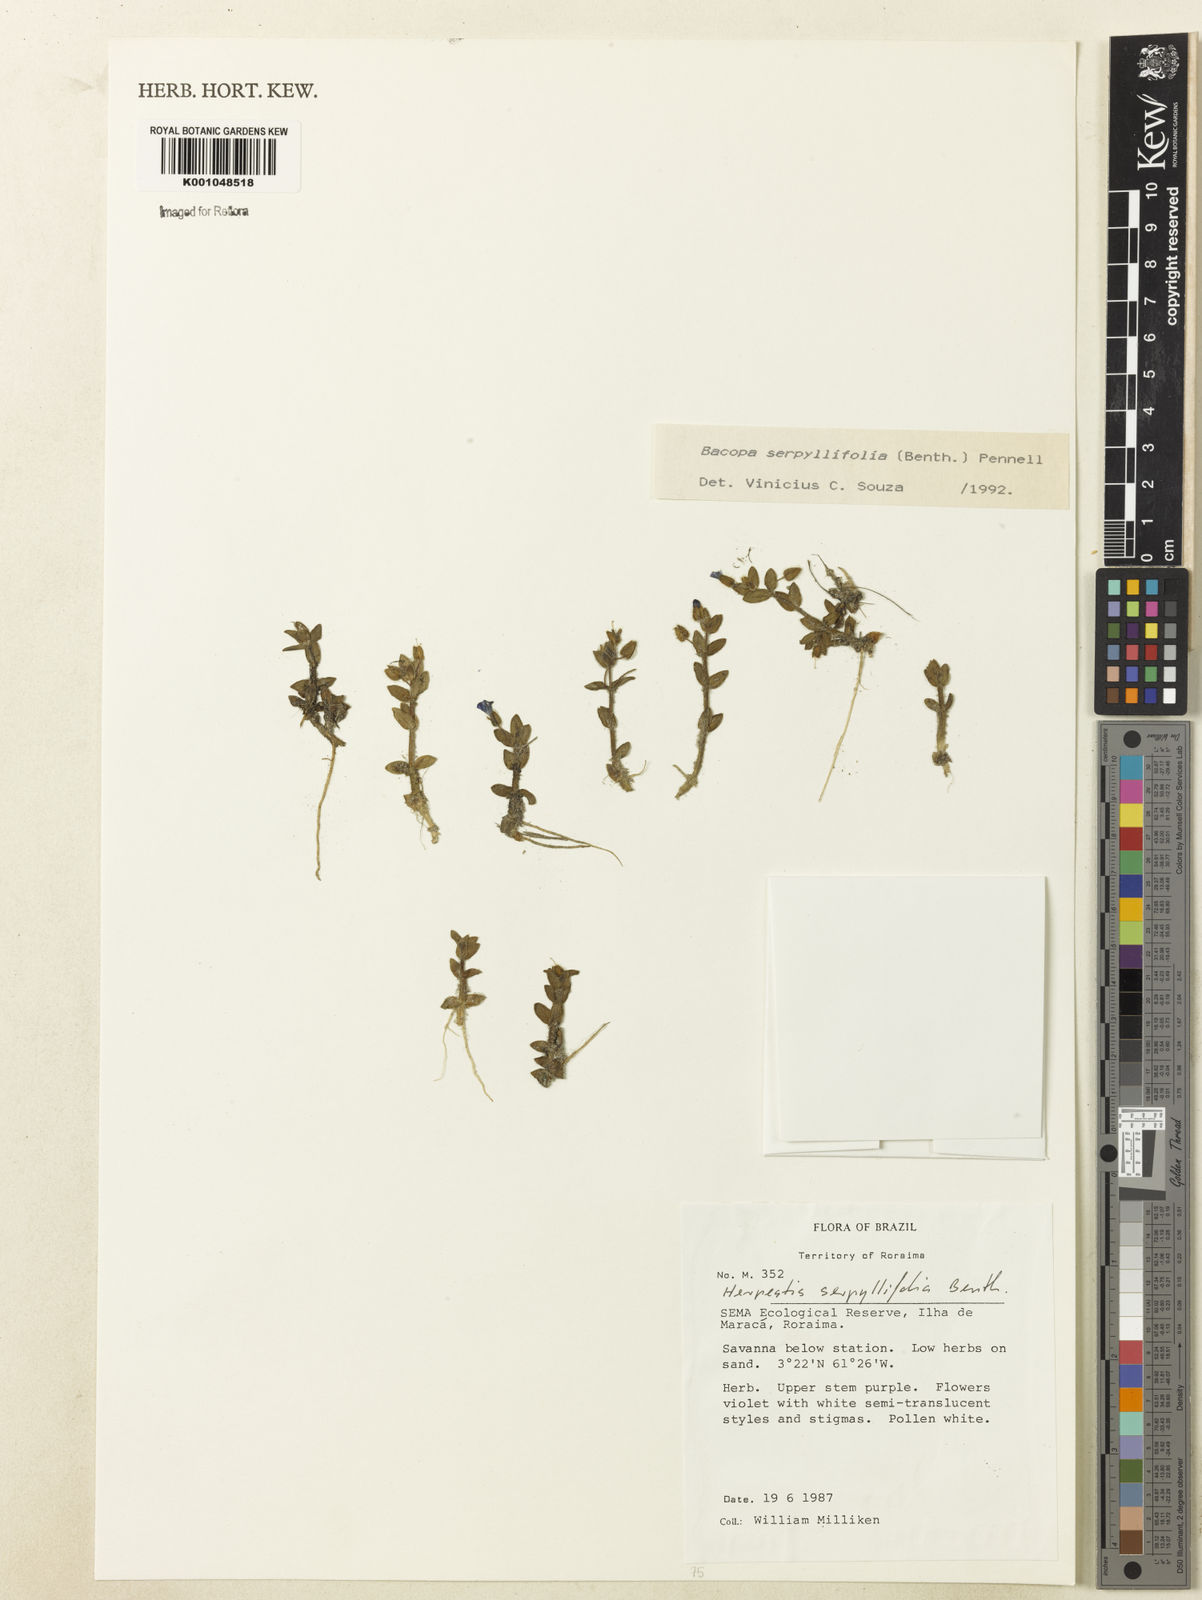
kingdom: Plantae
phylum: Tracheophyta
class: Magnoliopsida
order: Lamiales
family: Plantaginaceae
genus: Bacopa
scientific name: Bacopa serpyllifolia
